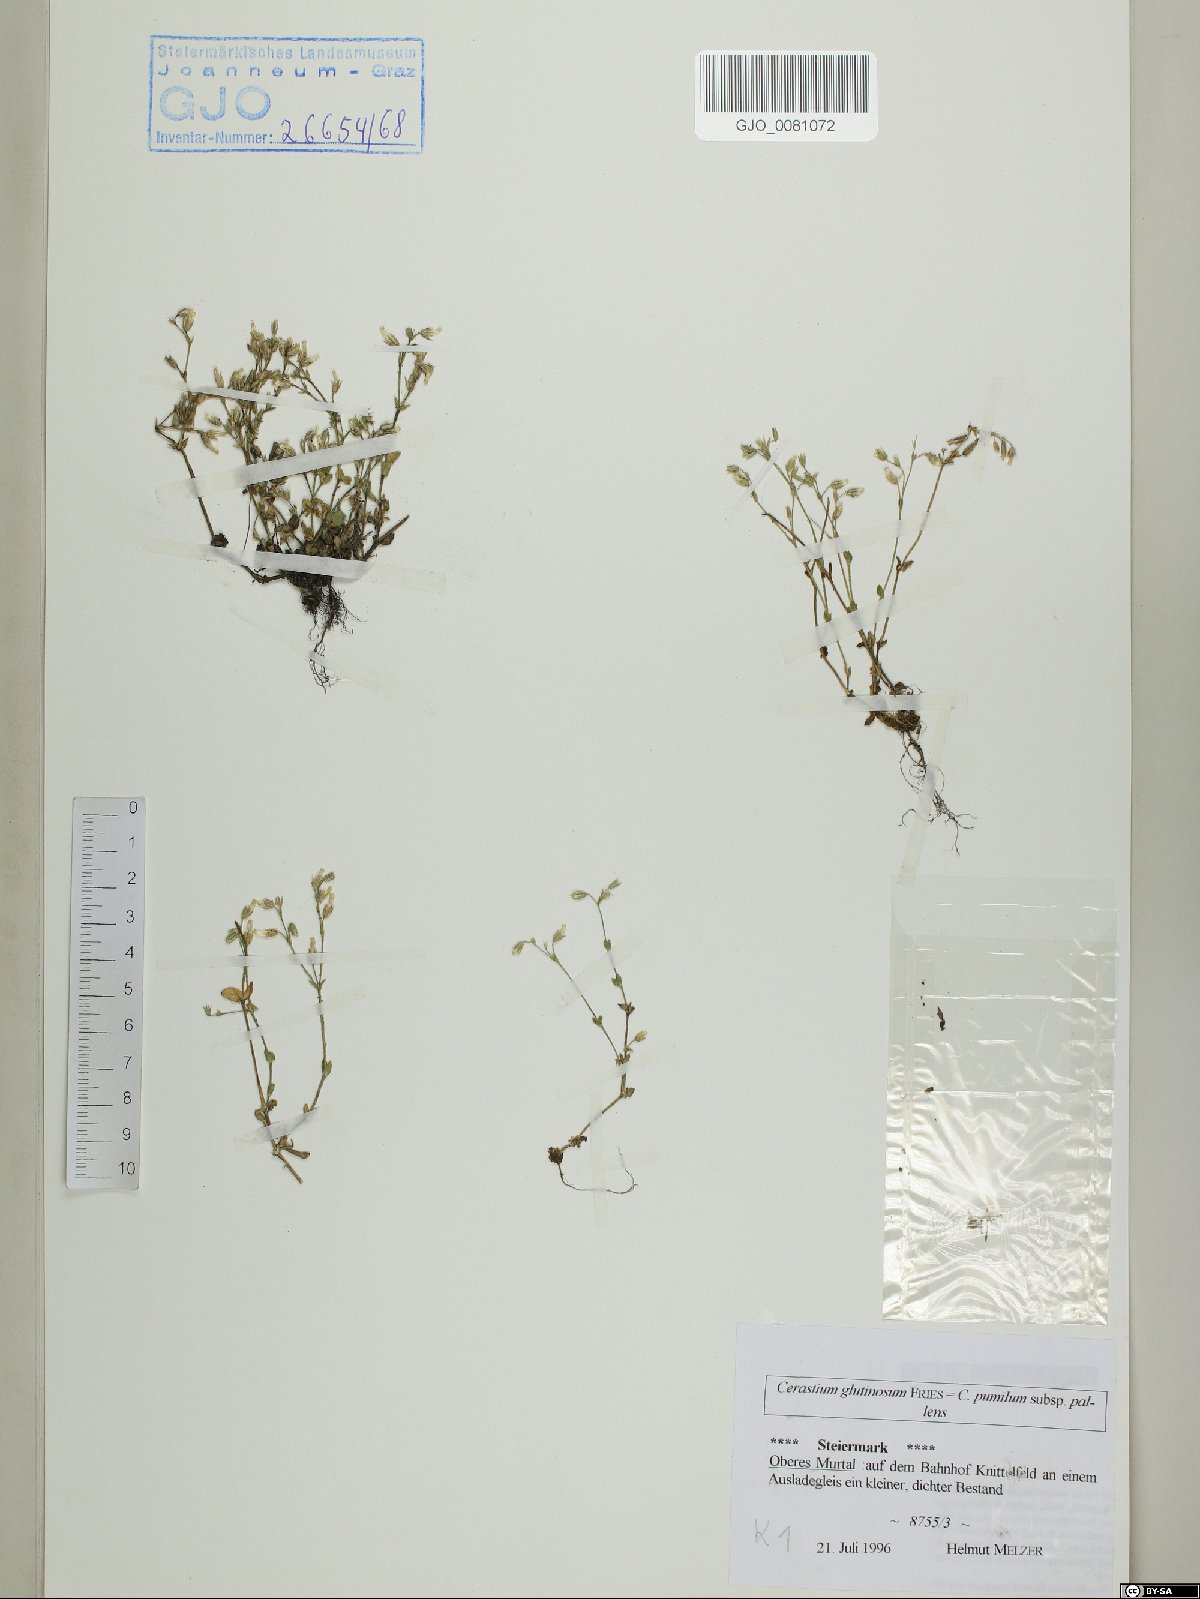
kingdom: Plantae
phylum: Tracheophyta
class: Magnoliopsida
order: Caryophyllales
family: Caryophyllaceae
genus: Cerastium
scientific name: Cerastium glutinosum
